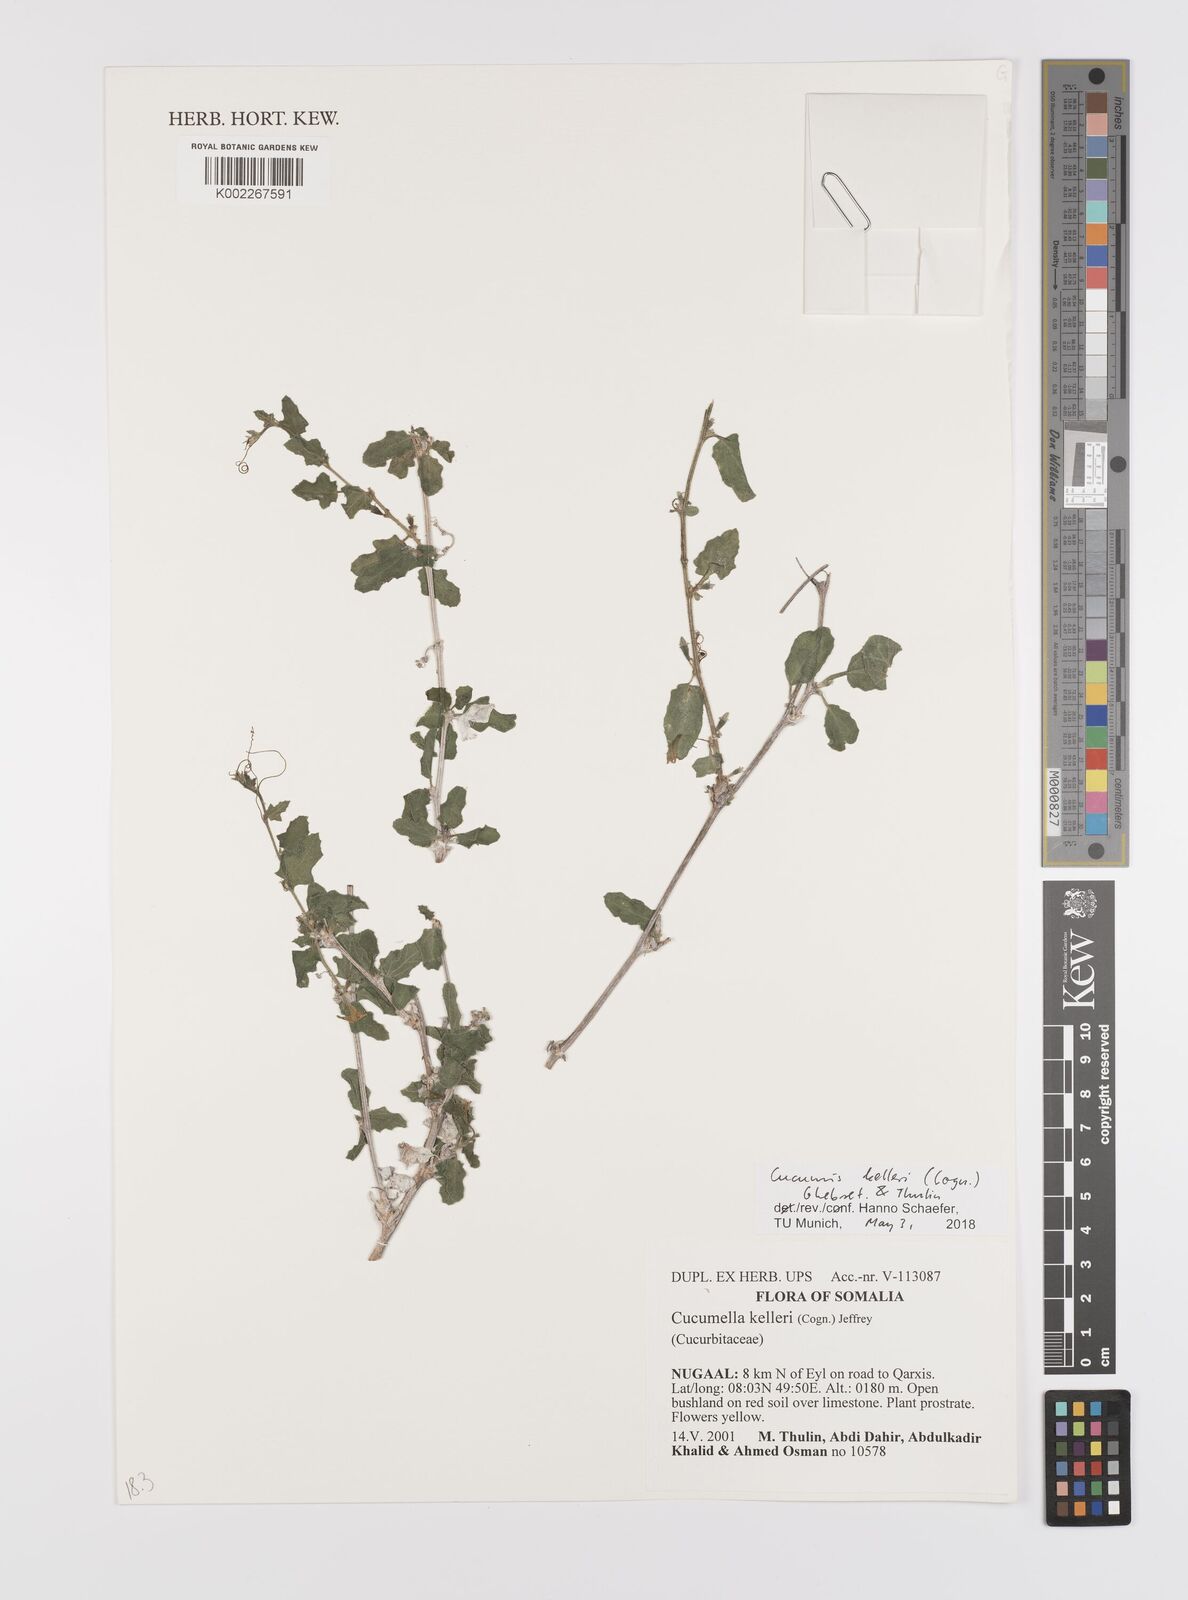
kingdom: Plantae
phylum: Tracheophyta
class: Magnoliopsida
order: Cucurbitales
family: Cucurbitaceae
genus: Cucumis
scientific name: Cucumis kelleri
